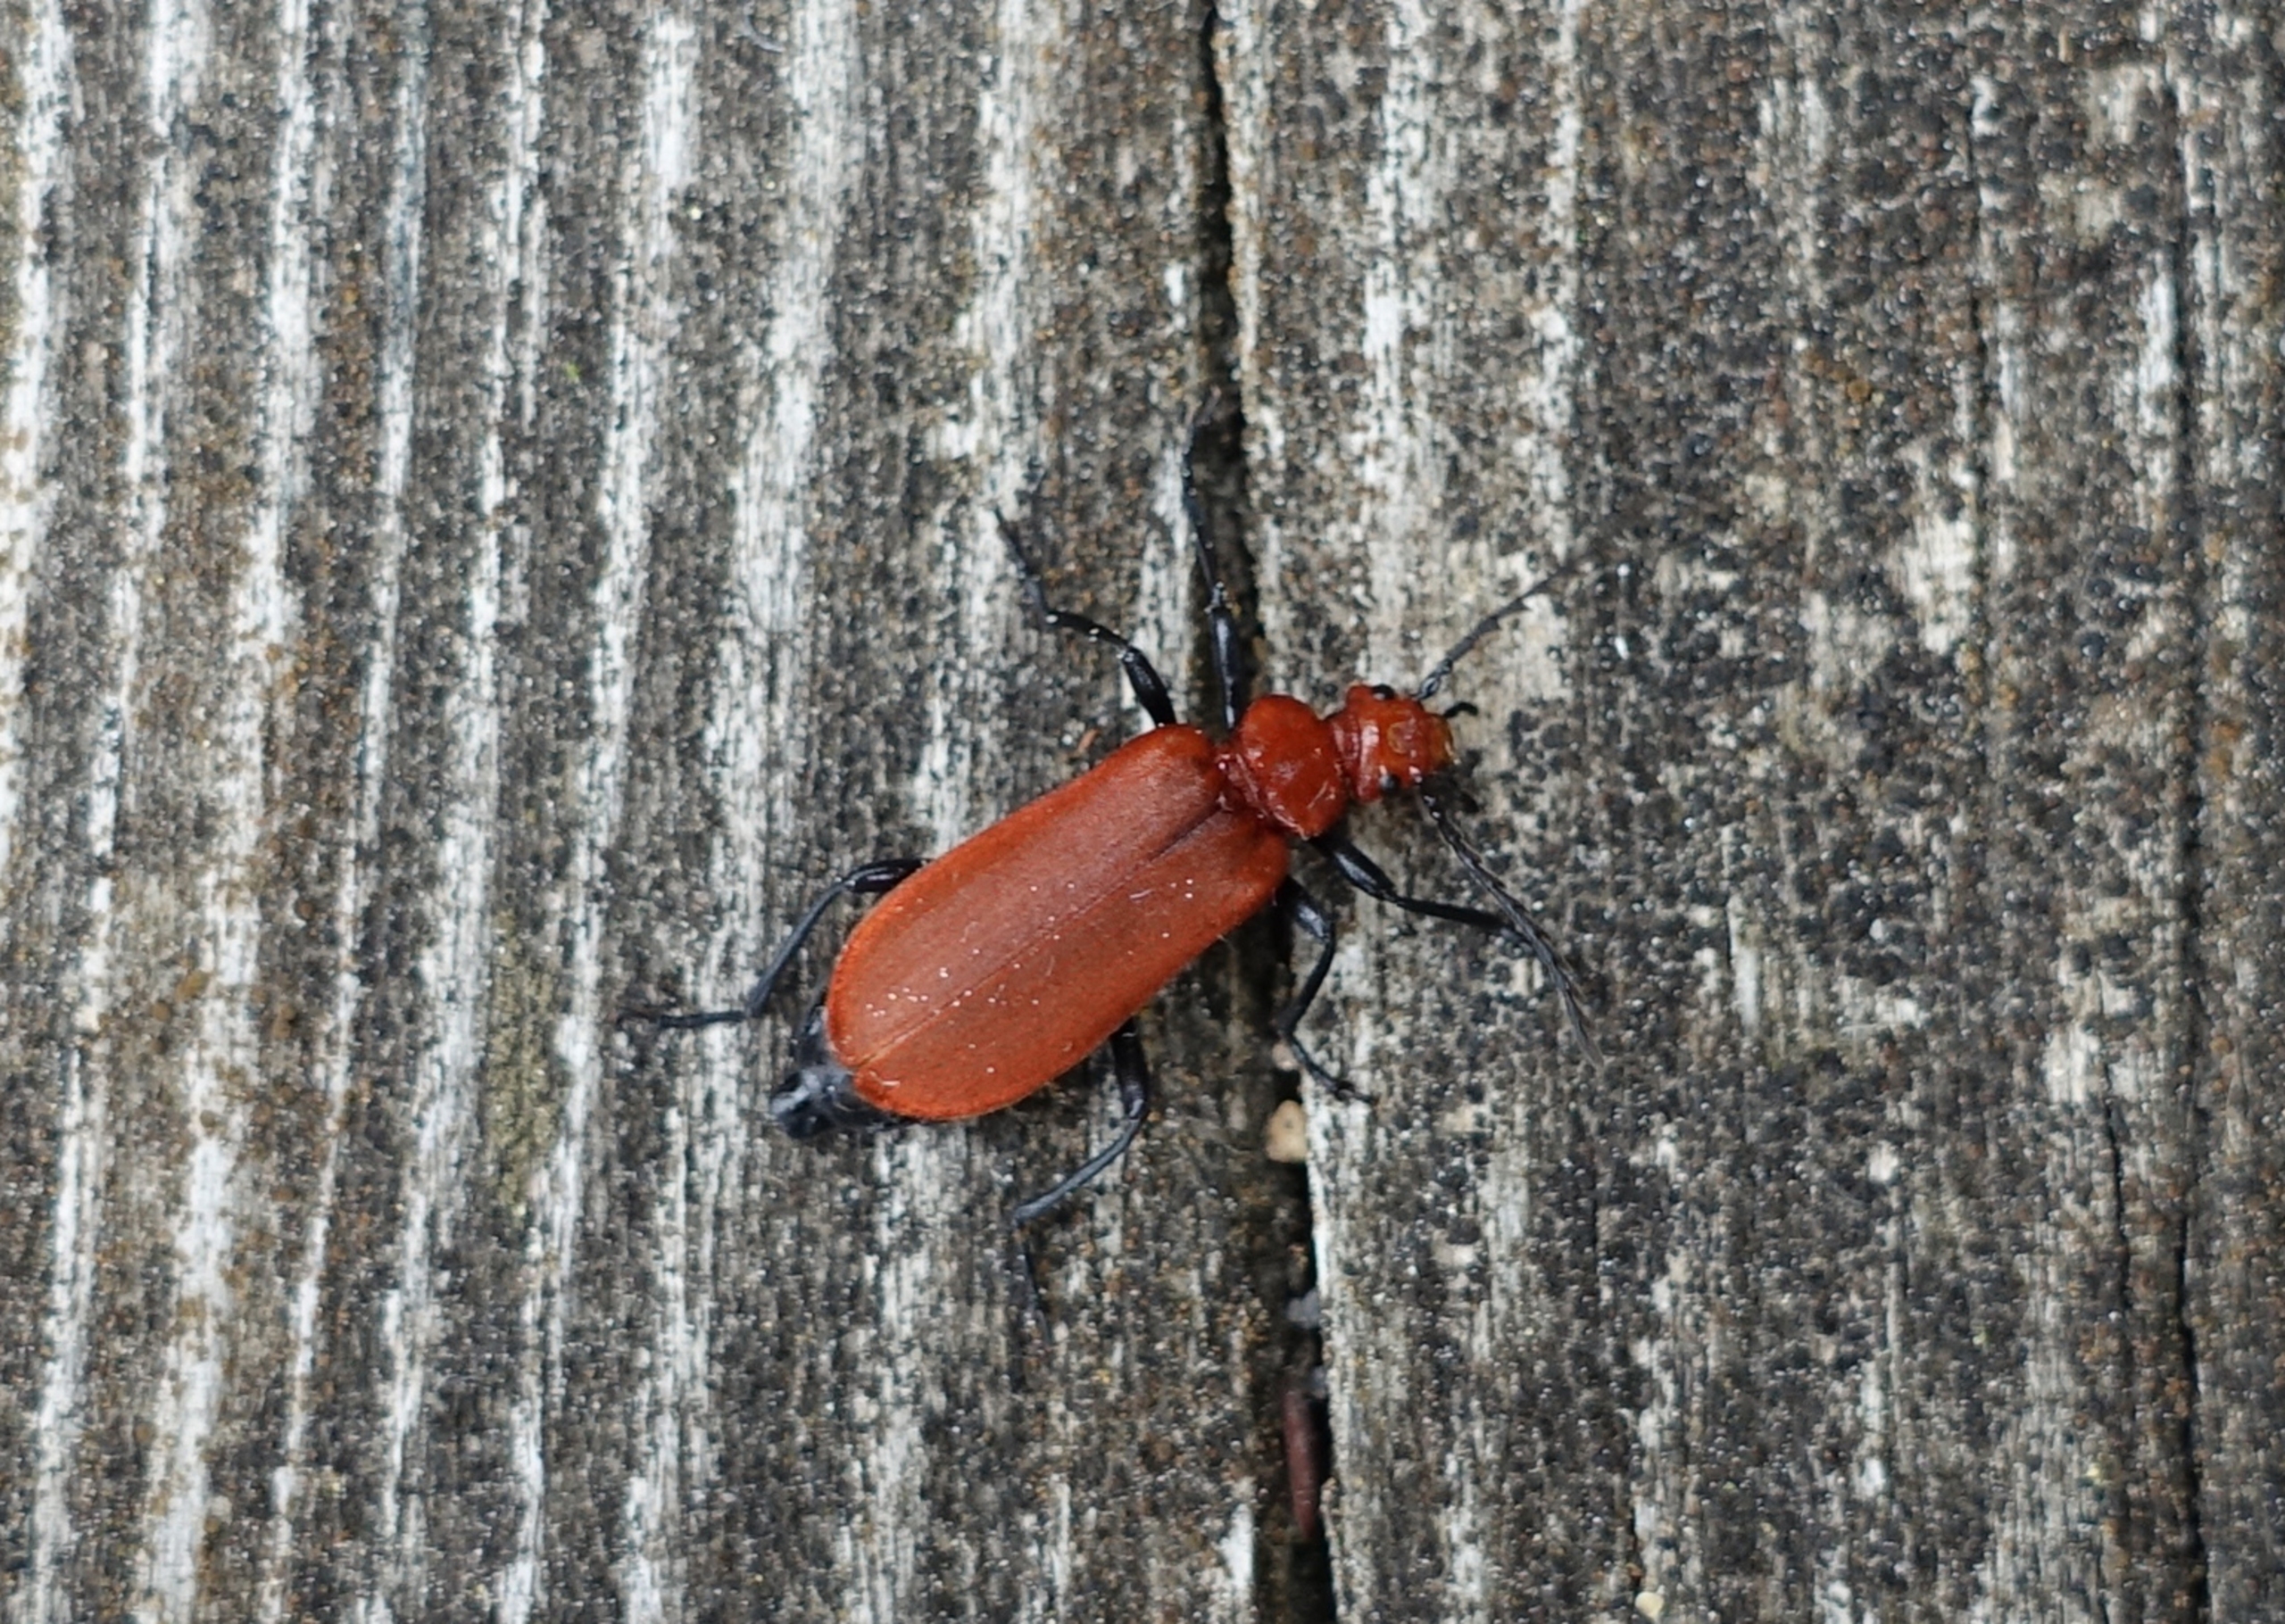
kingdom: Animalia
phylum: Arthropoda
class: Insecta
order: Coleoptera
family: Pyrochroidae
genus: Pyrochroa
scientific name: Pyrochroa serraticornis
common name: Rødhovedet kardinalbille
